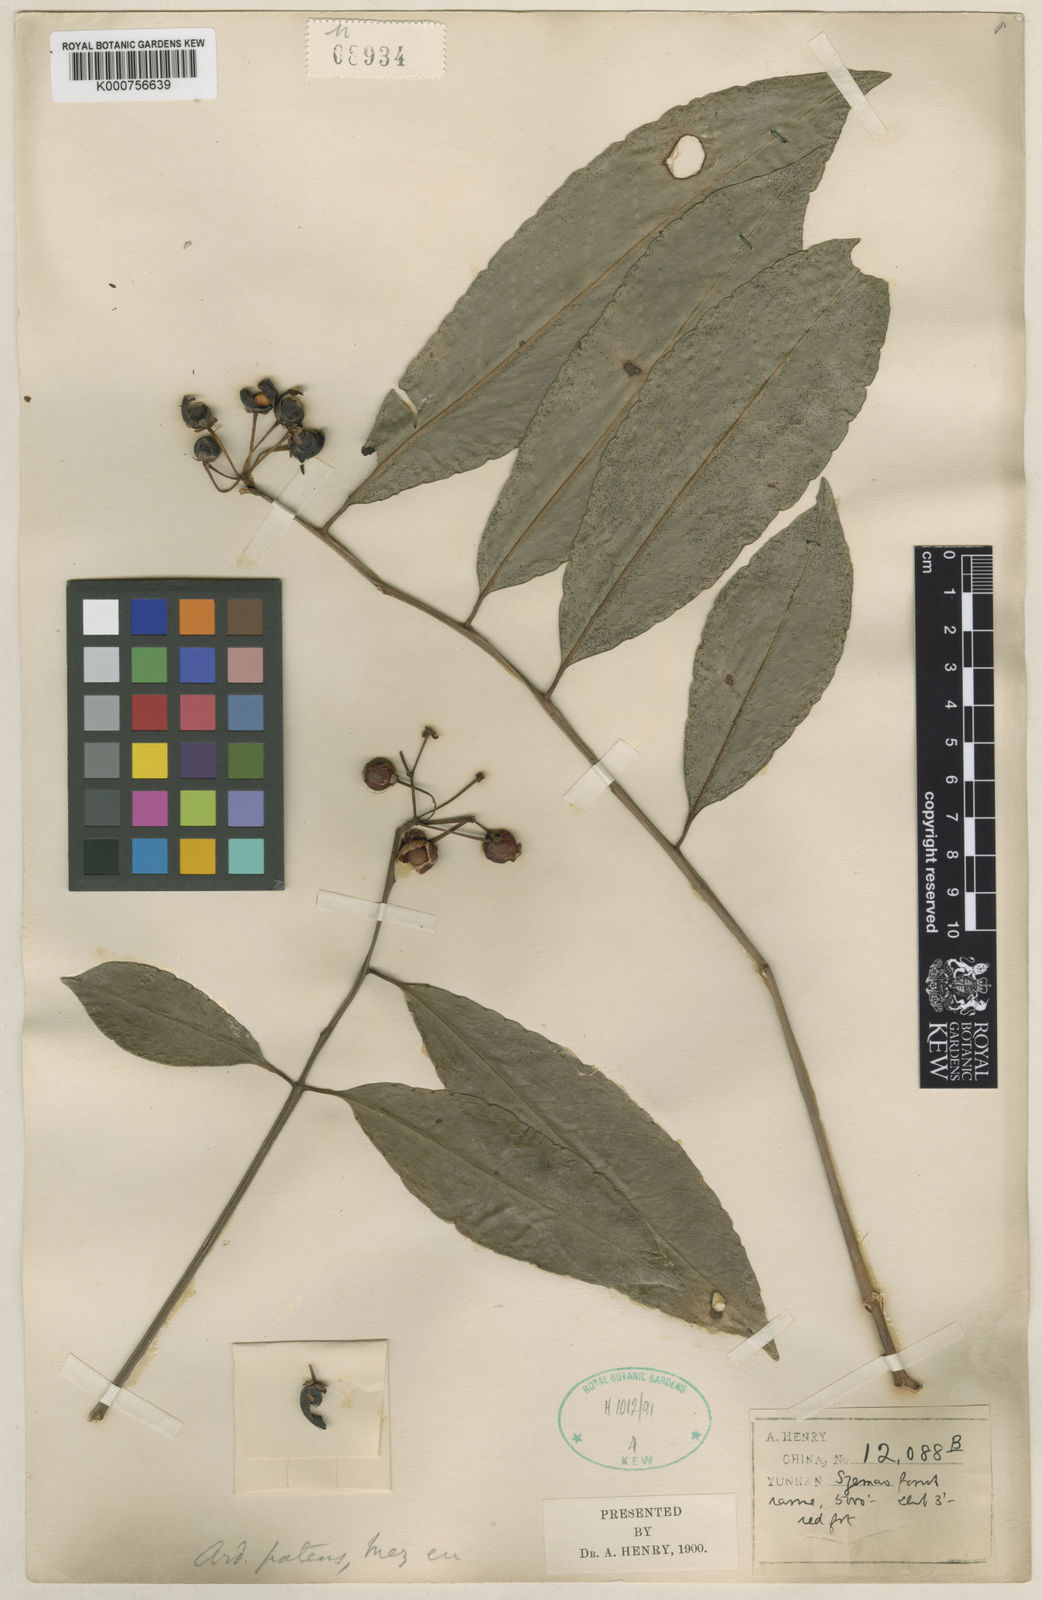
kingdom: Plantae
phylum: Tracheophyta
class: Magnoliopsida
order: Ericales
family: Primulaceae
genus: Ardisia
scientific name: Ardisia polysticta
